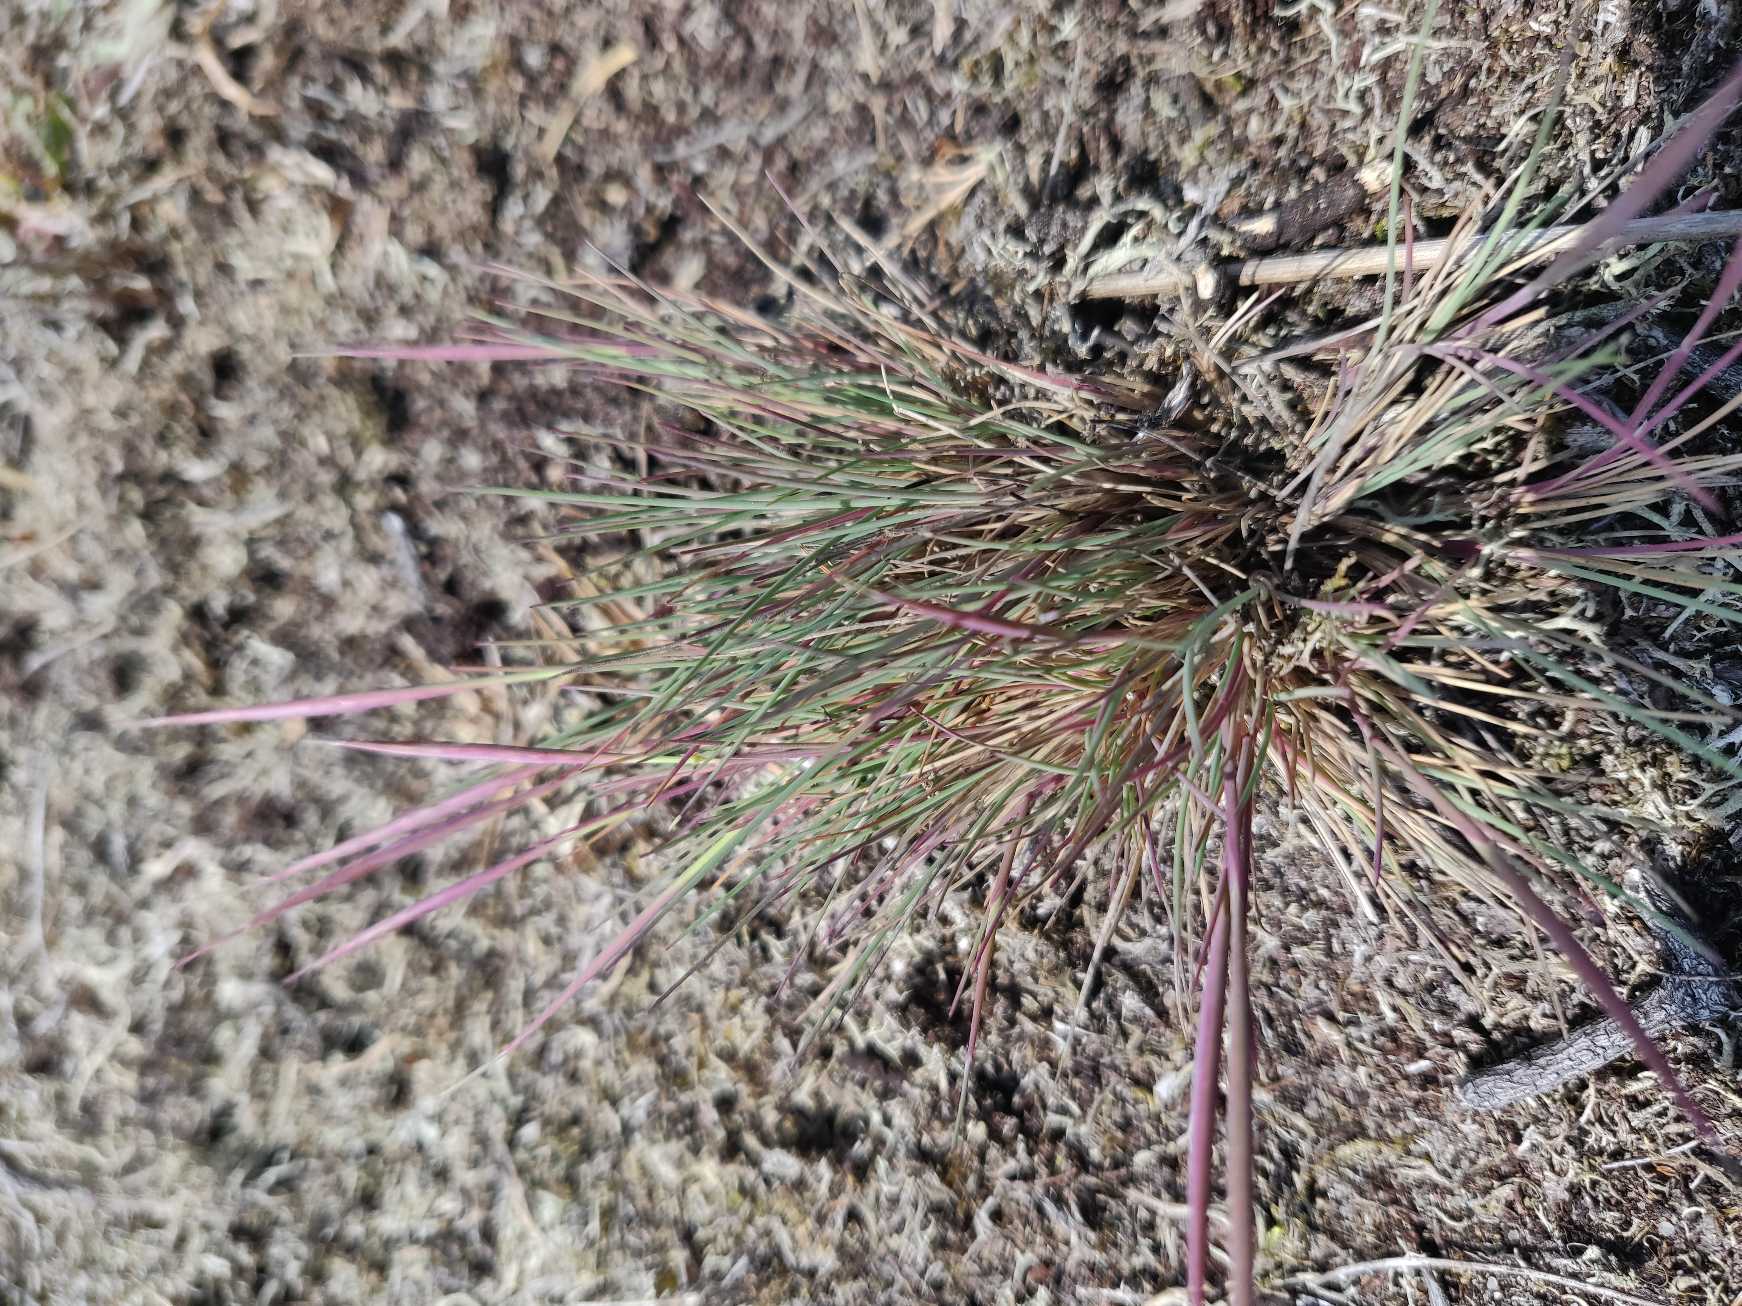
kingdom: Plantae
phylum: Tracheophyta
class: Liliopsida
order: Poales
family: Poaceae
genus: Corynephorus
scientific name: Corynephorus canescens
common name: Sandskæg
